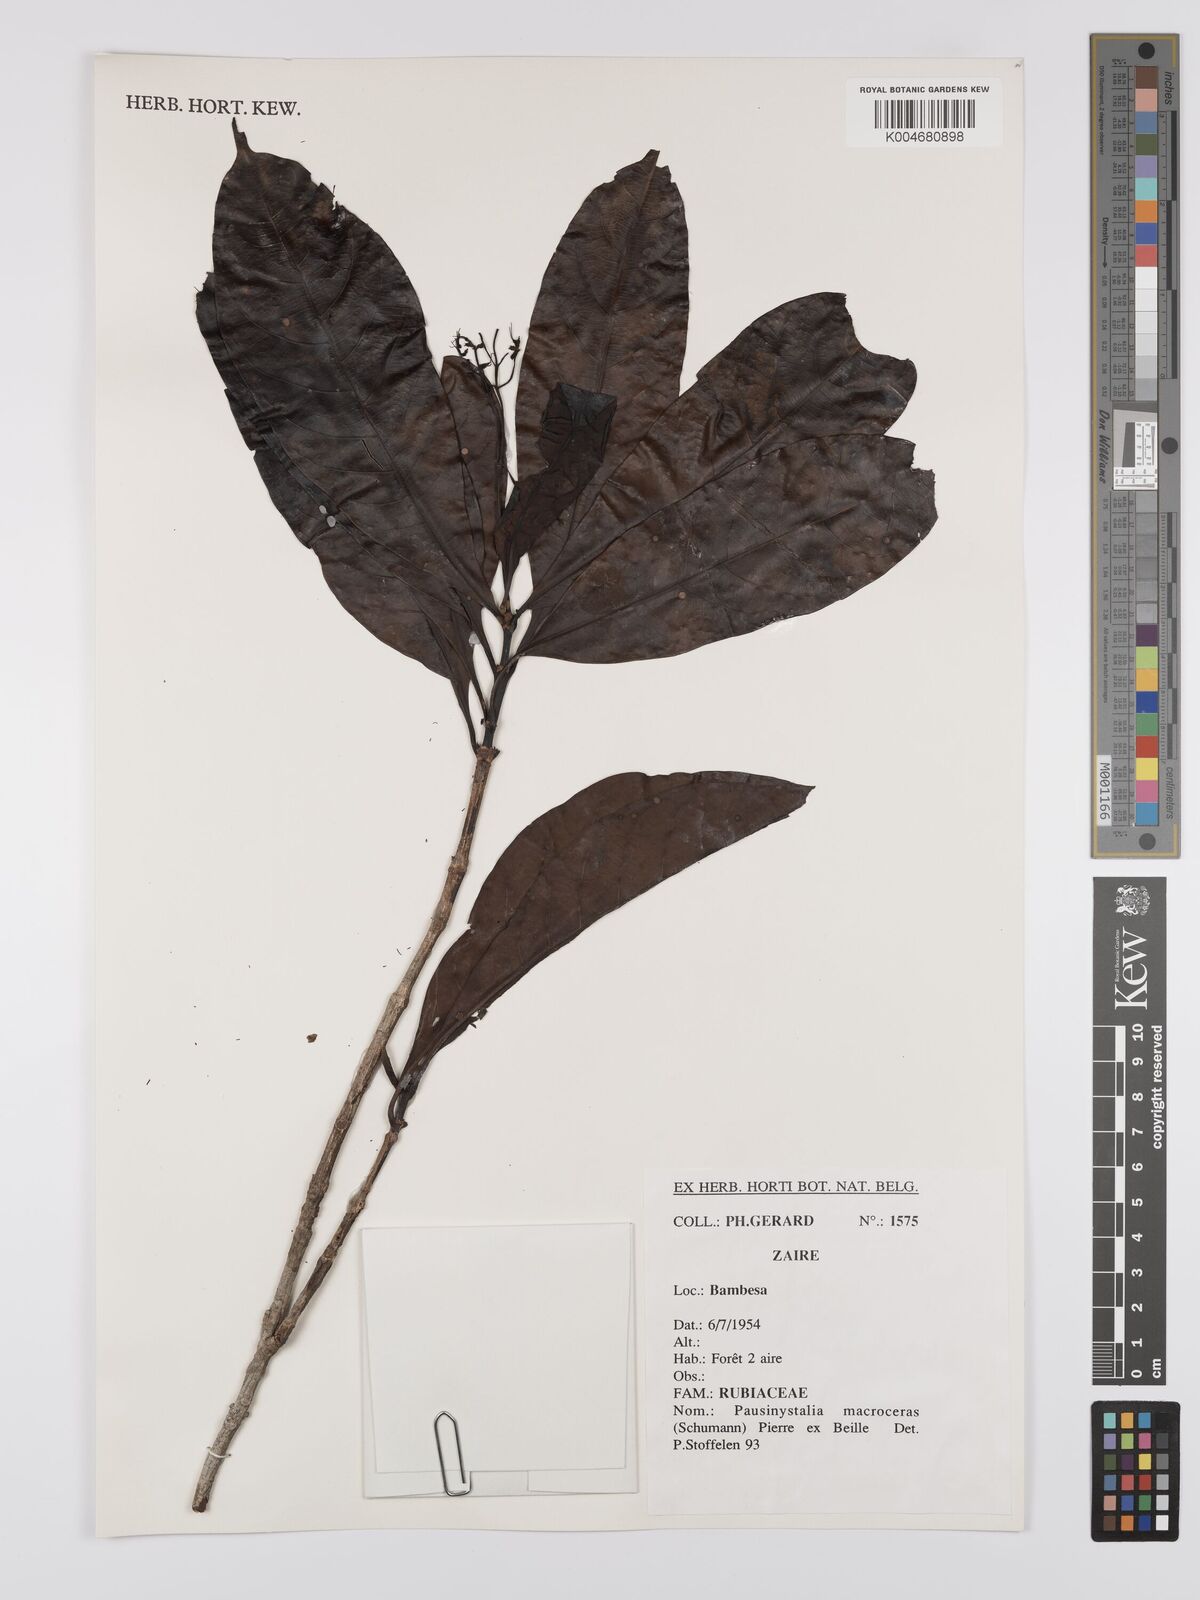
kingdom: Plantae
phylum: Tracheophyta
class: Magnoliopsida
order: Gentianales
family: Rubiaceae
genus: Corynanthe
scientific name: Corynanthe macroceras
